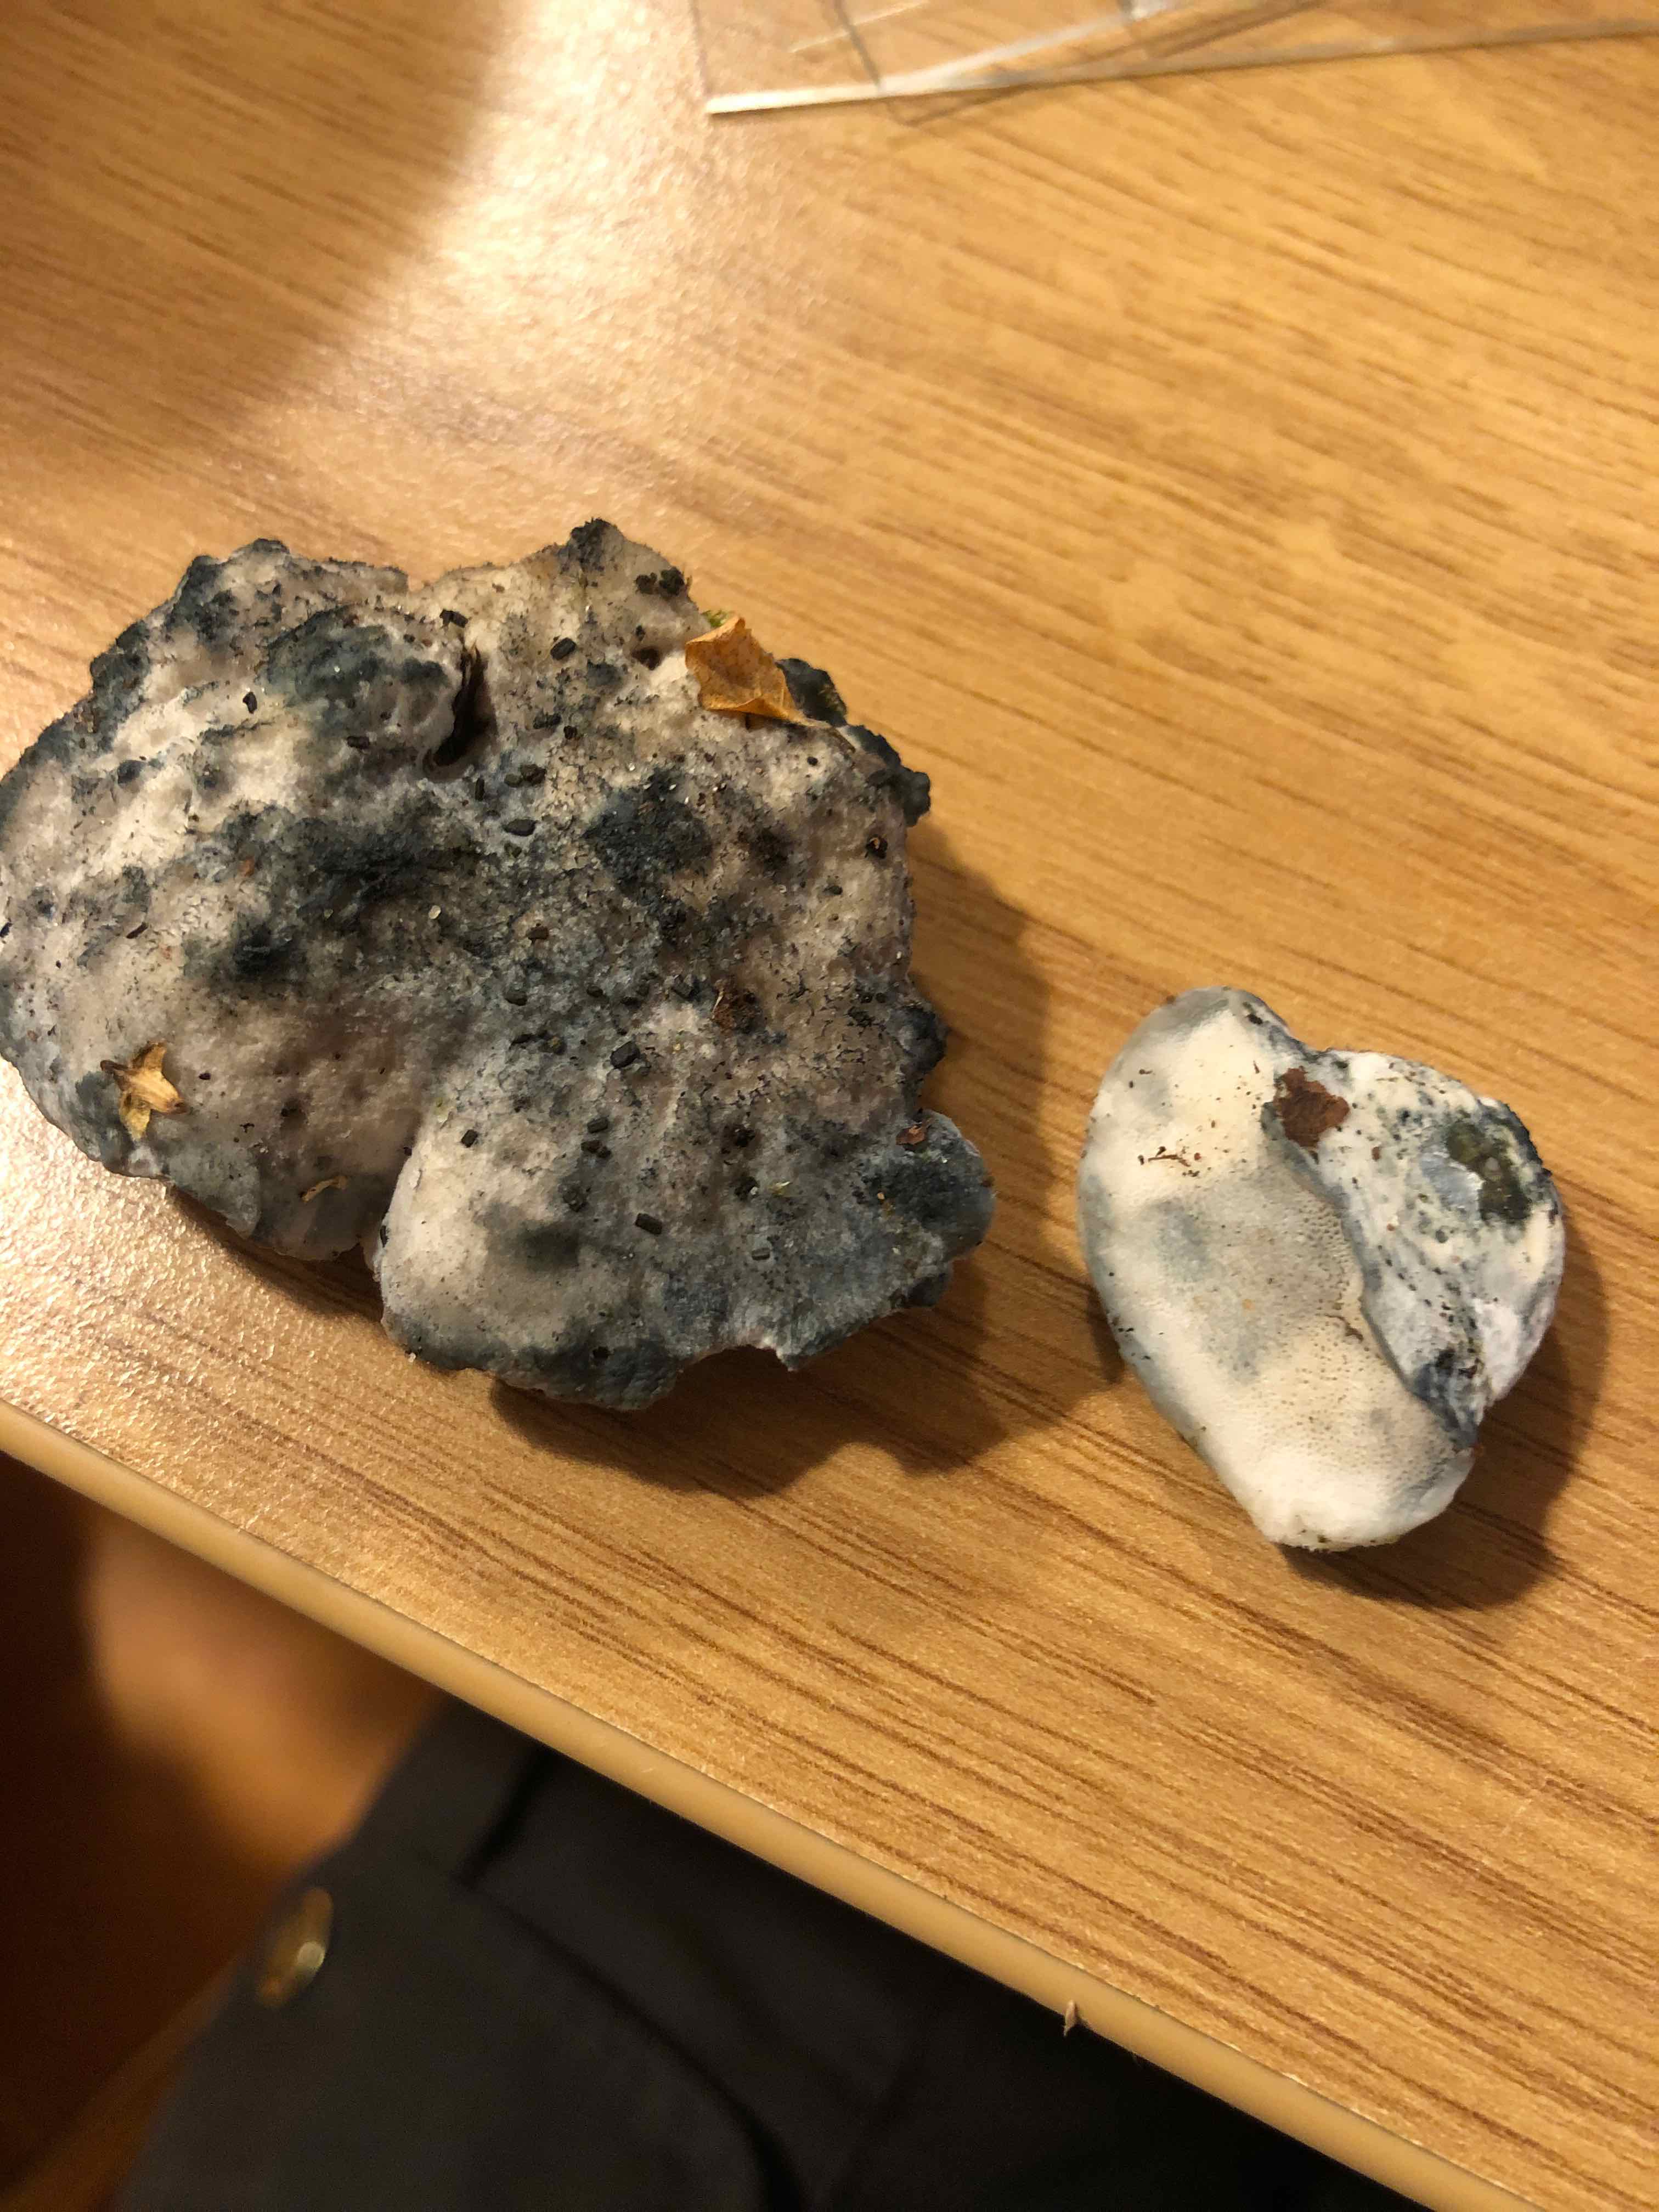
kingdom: Fungi
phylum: Basidiomycota
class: Agaricomycetes
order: Polyporales
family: Dacryobolaceae
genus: Postia
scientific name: Postia
